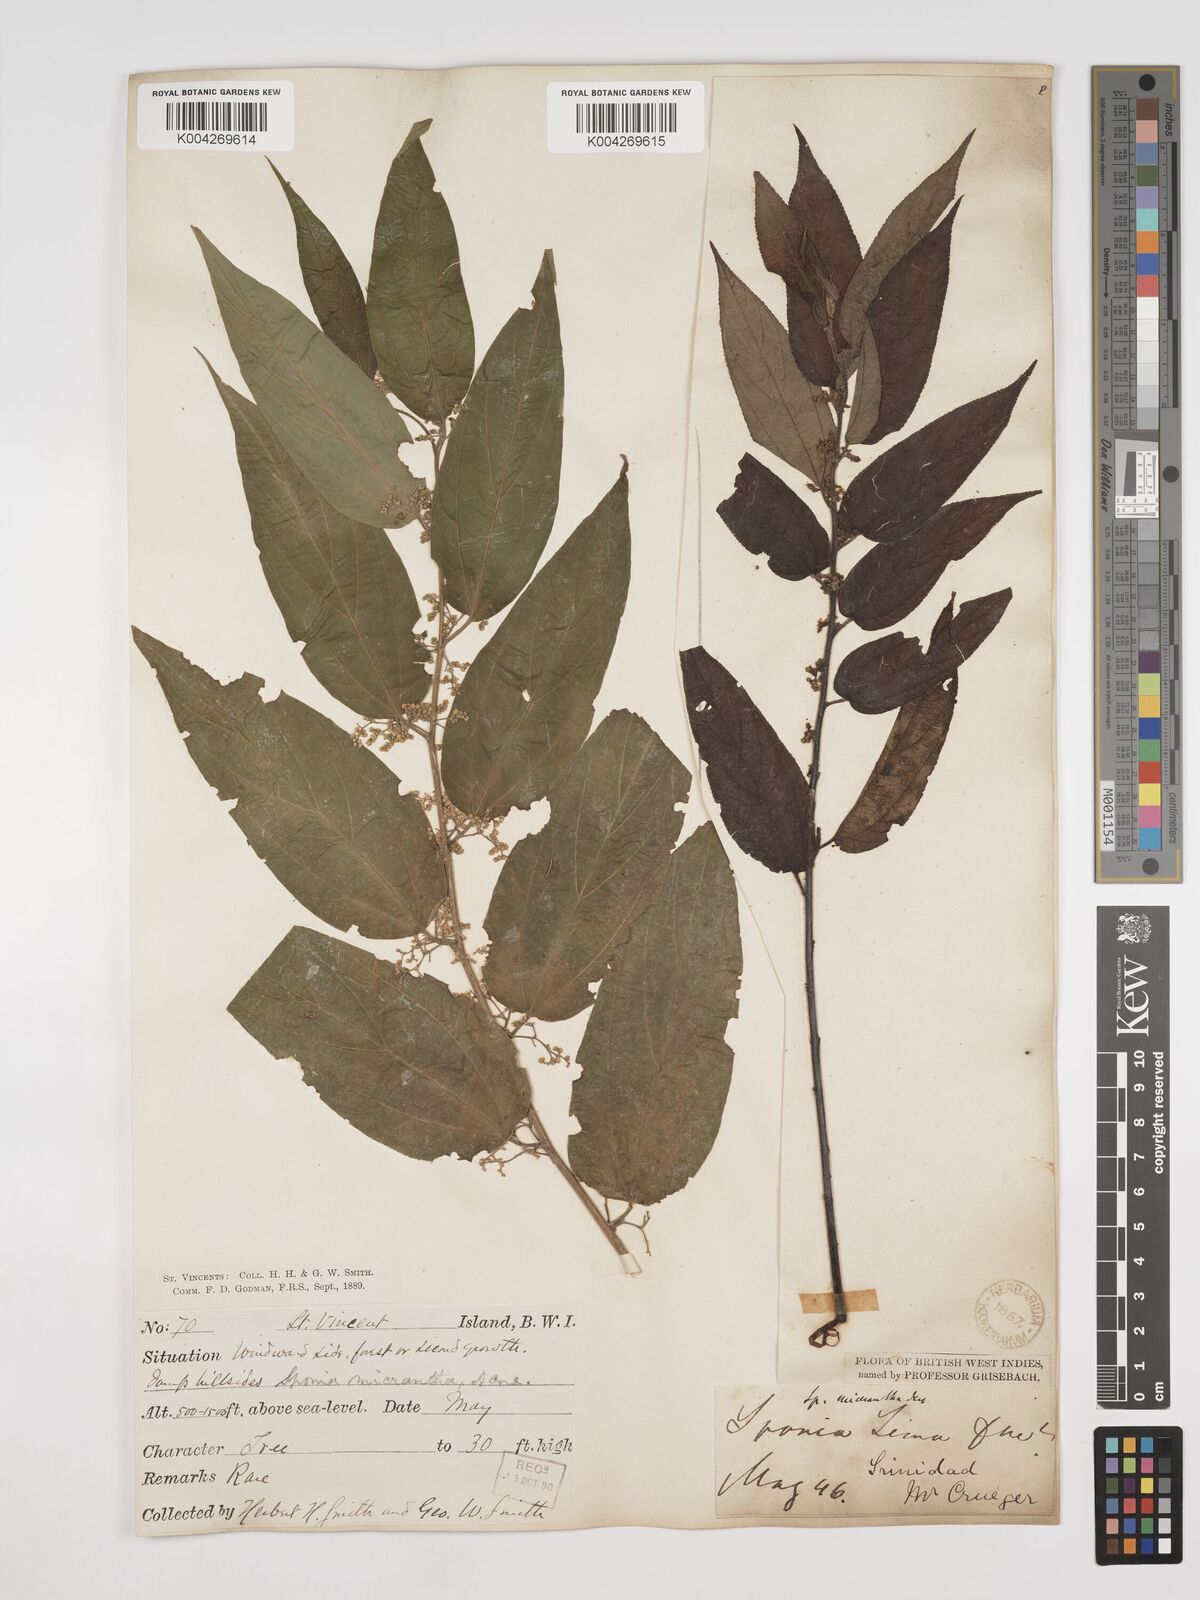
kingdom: Plantae
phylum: Tracheophyta
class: Magnoliopsida
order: Rosales
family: Cannabaceae
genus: Trema
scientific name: Trema micranthum
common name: Jamaican nettletree
